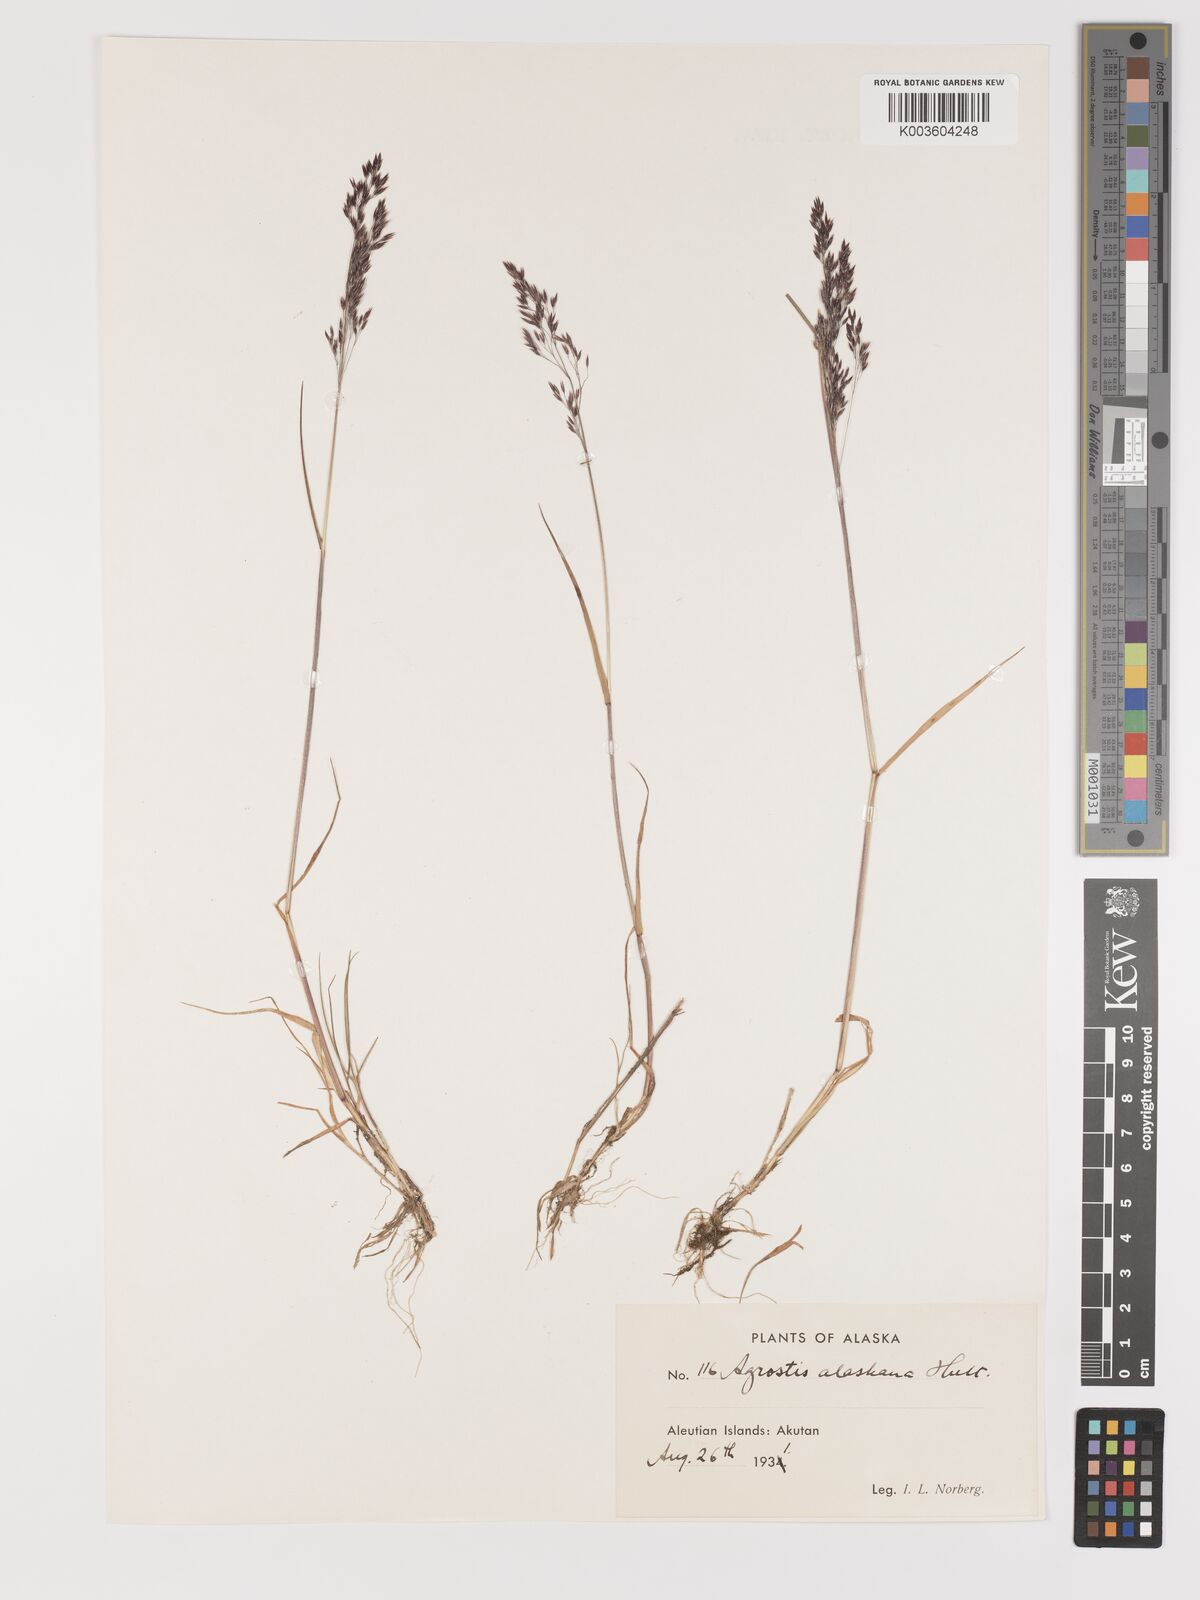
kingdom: Plantae
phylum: Tracheophyta
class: Liliopsida
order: Poales
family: Poaceae
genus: Agrostis
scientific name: Agrostis exarata
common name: Spike bent
